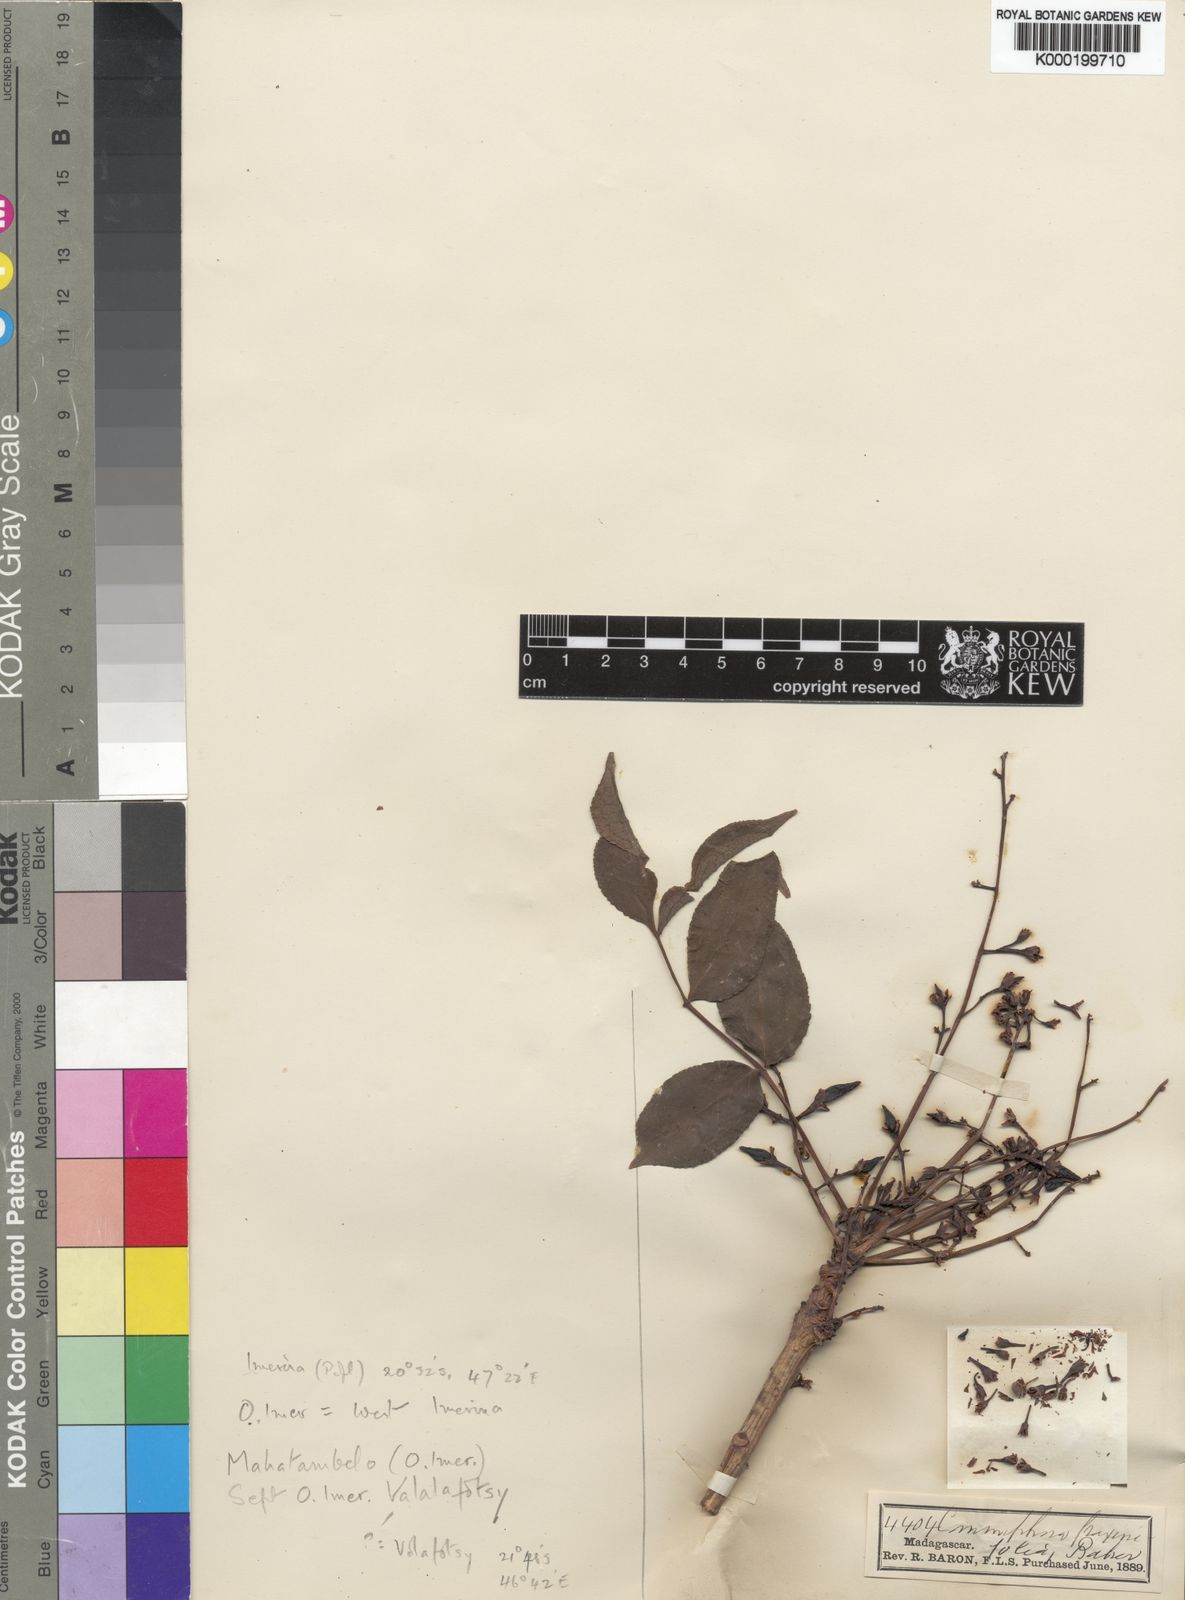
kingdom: Plantae
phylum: Tracheophyta
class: Magnoliopsida
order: Sapindales
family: Burseraceae
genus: Commiphora
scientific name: Commiphora fraxinifolia
